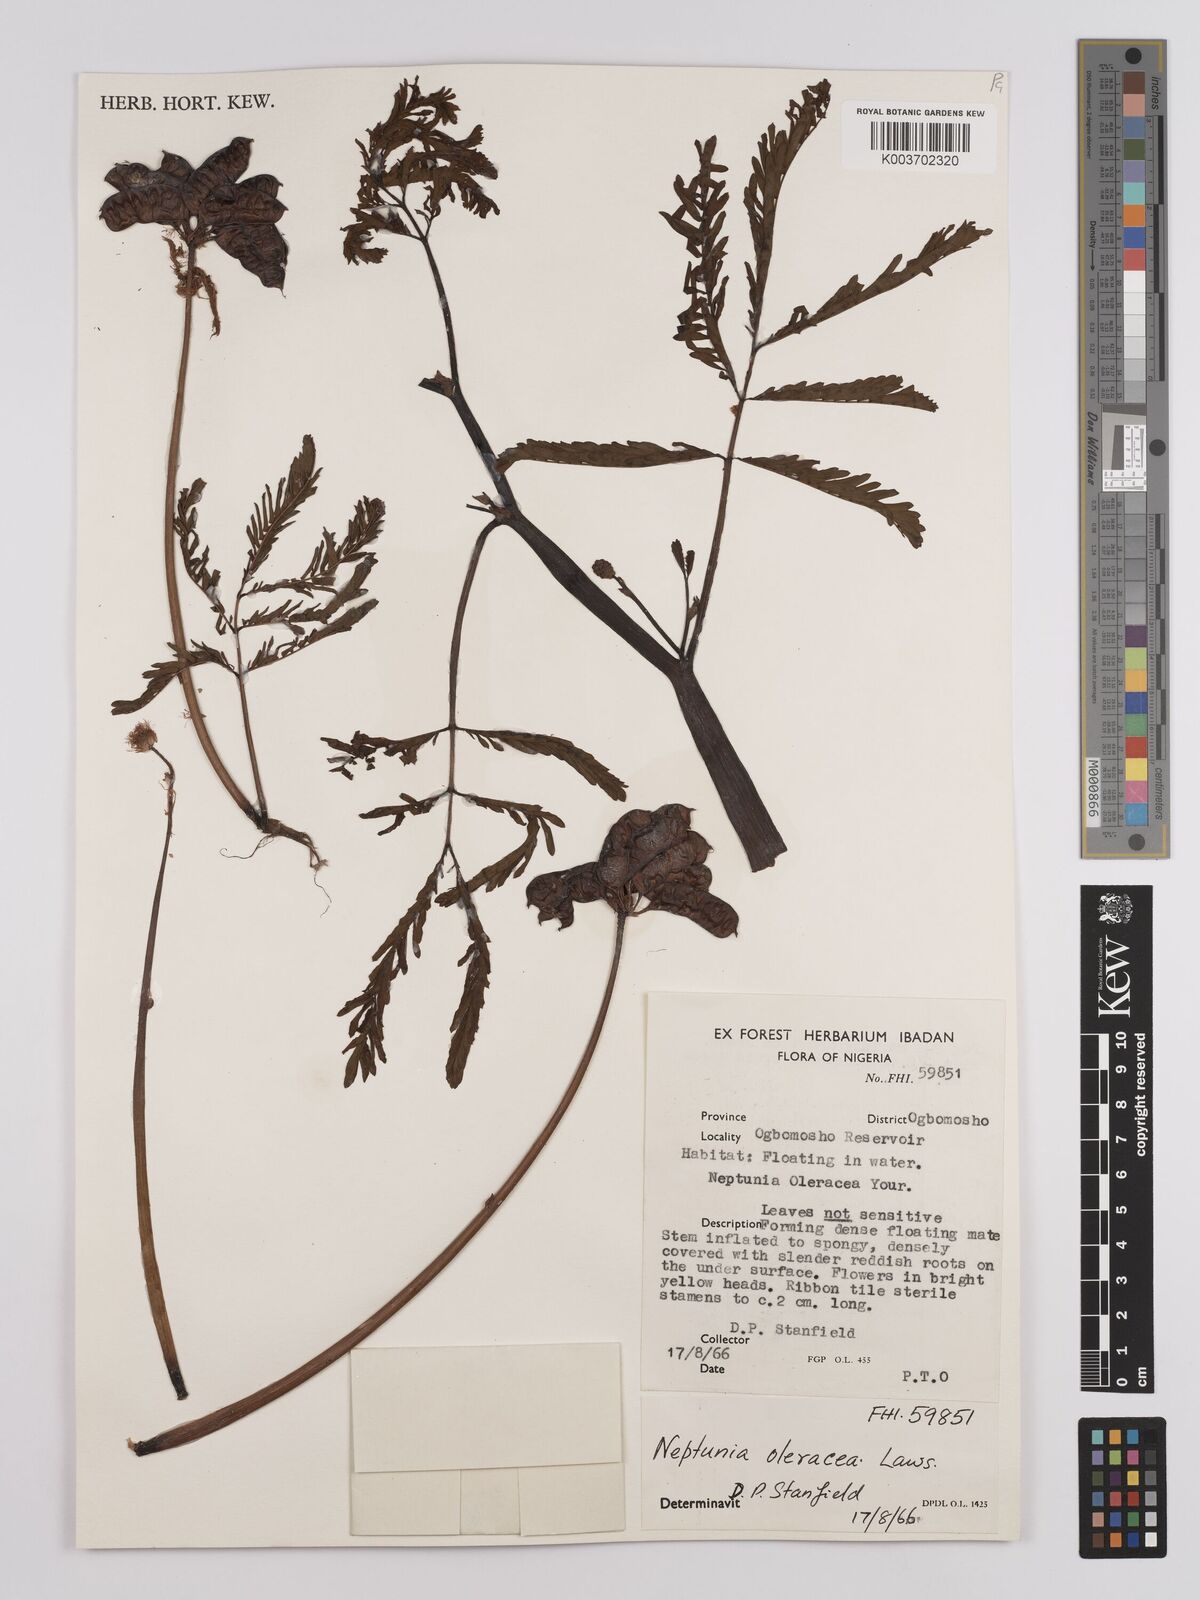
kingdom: Plantae
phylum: Tracheophyta
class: Magnoliopsida
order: Fabales
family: Fabaceae
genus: Neptunia
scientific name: Neptunia prostrata
